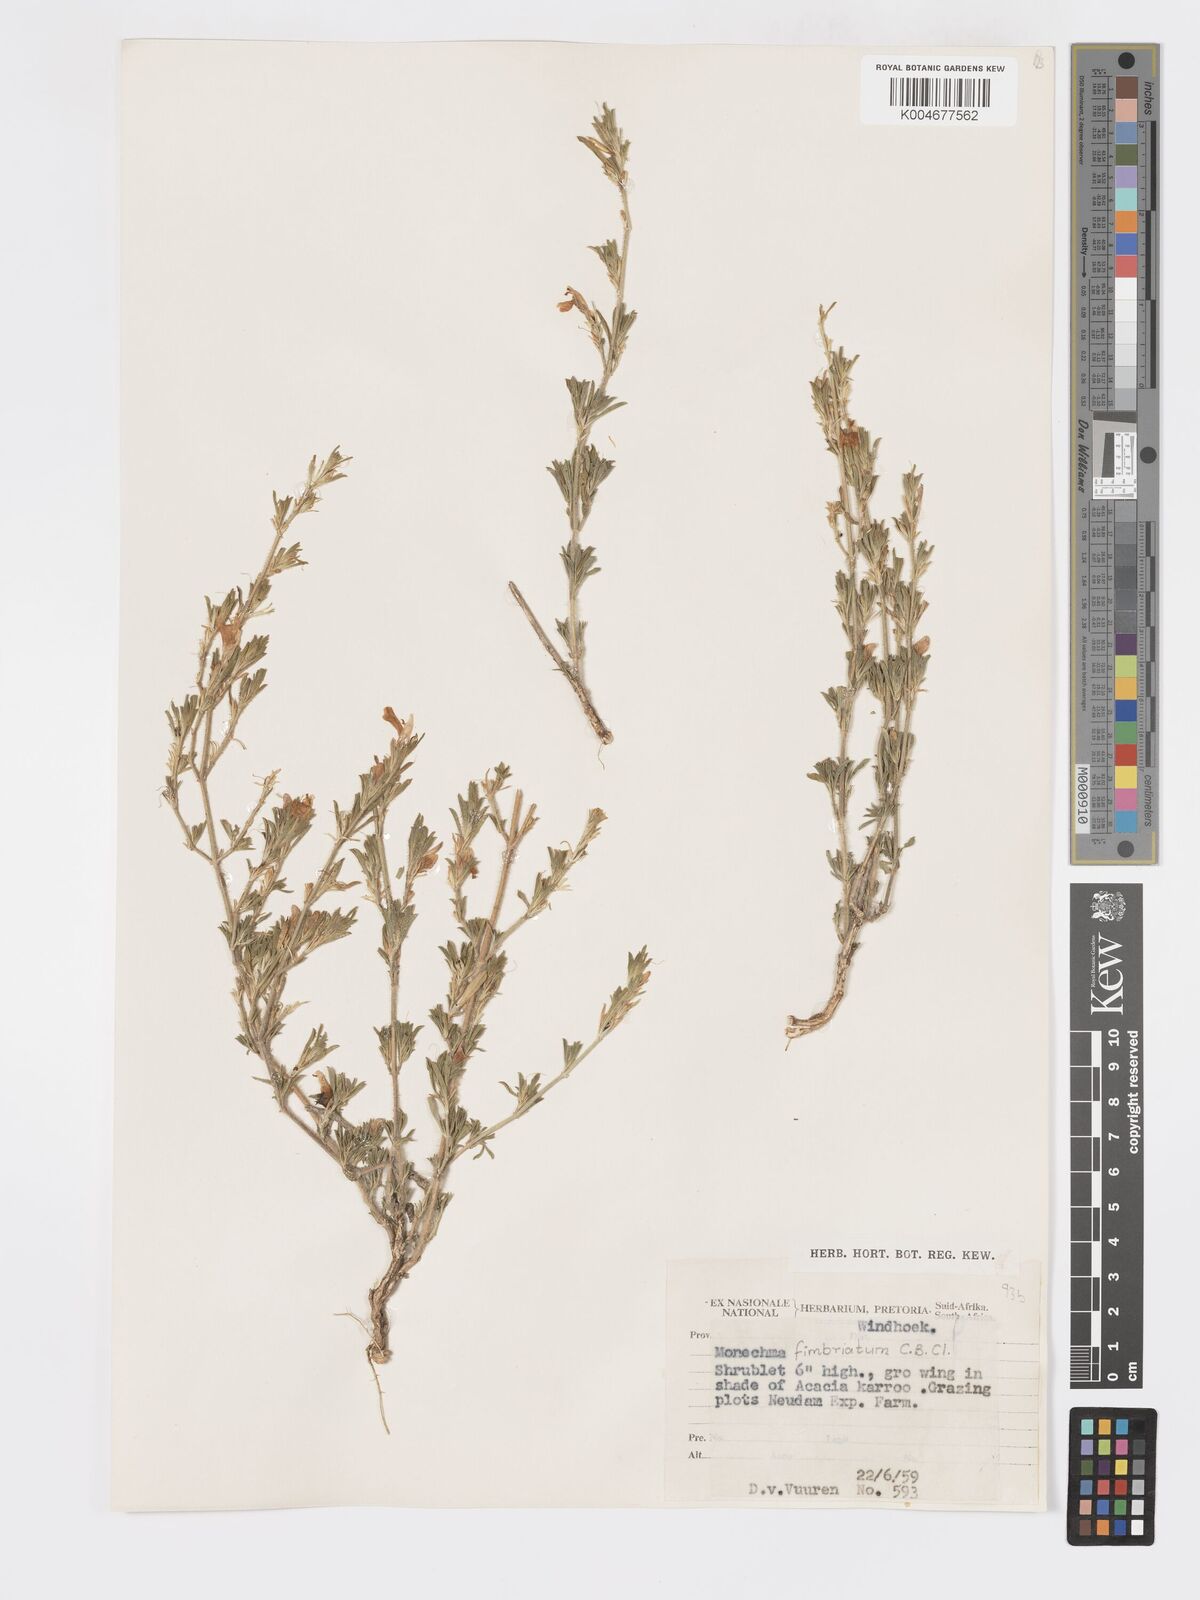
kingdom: Plantae
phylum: Tracheophyta
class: Magnoliopsida
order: Lamiales
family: Acanthaceae
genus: Pogonospermum
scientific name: Pogonospermum
